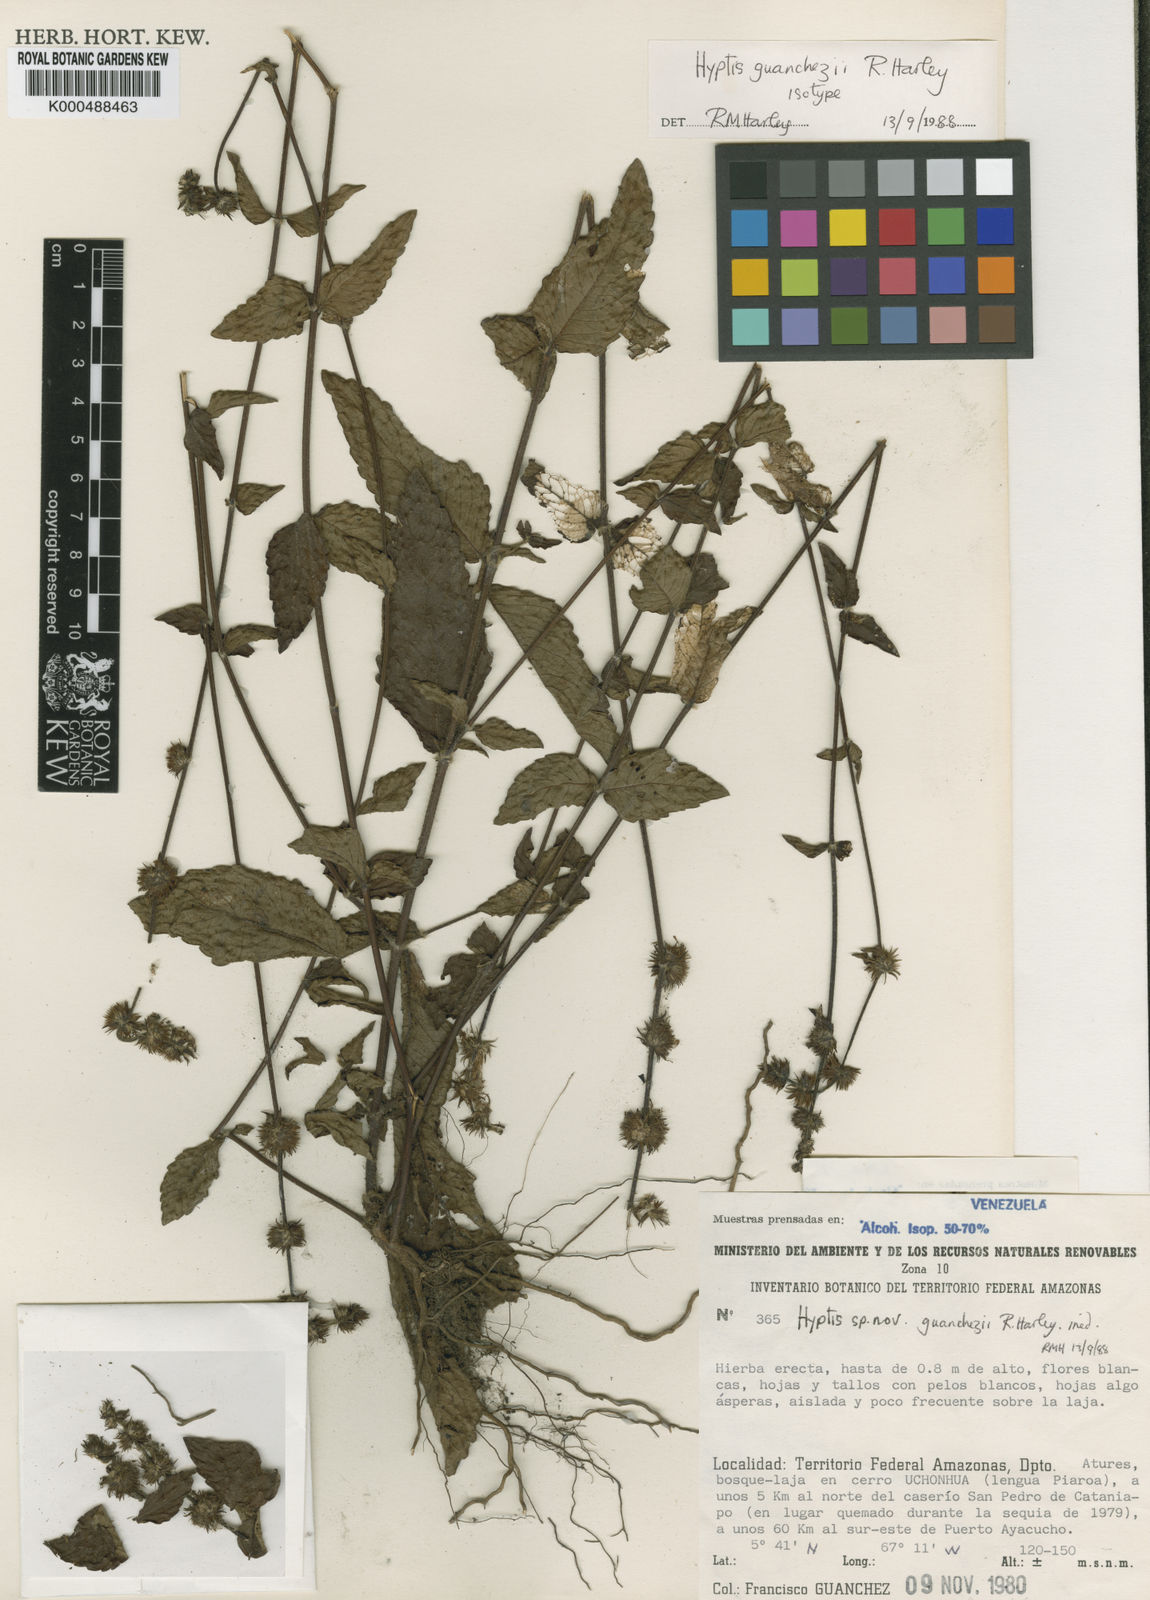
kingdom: Plantae
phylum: Tracheophyta
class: Magnoliopsida
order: Lamiales
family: Lamiaceae
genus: Hyptis
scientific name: Hyptis guanchezii
